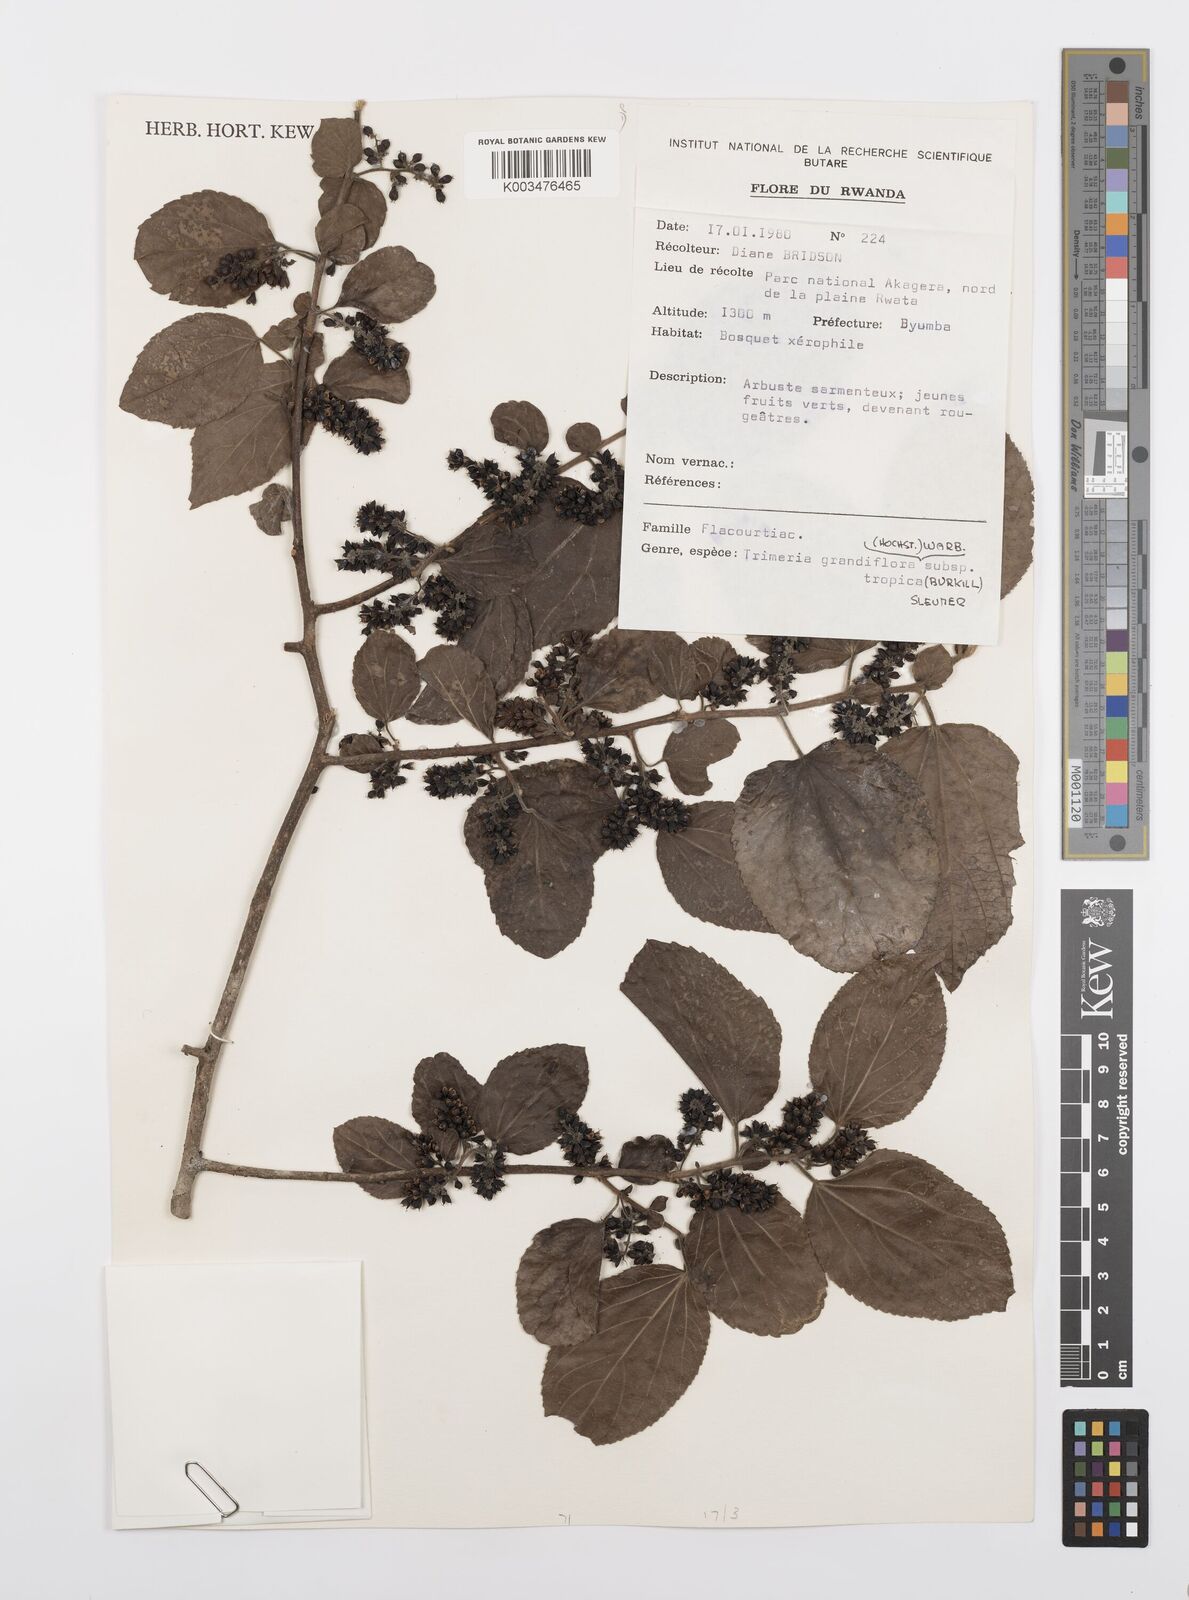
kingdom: Plantae
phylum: Tracheophyta
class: Magnoliopsida
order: Malpighiales
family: Salicaceae
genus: Trimeria
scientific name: Trimeria grandifolia
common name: Wild mulberry
